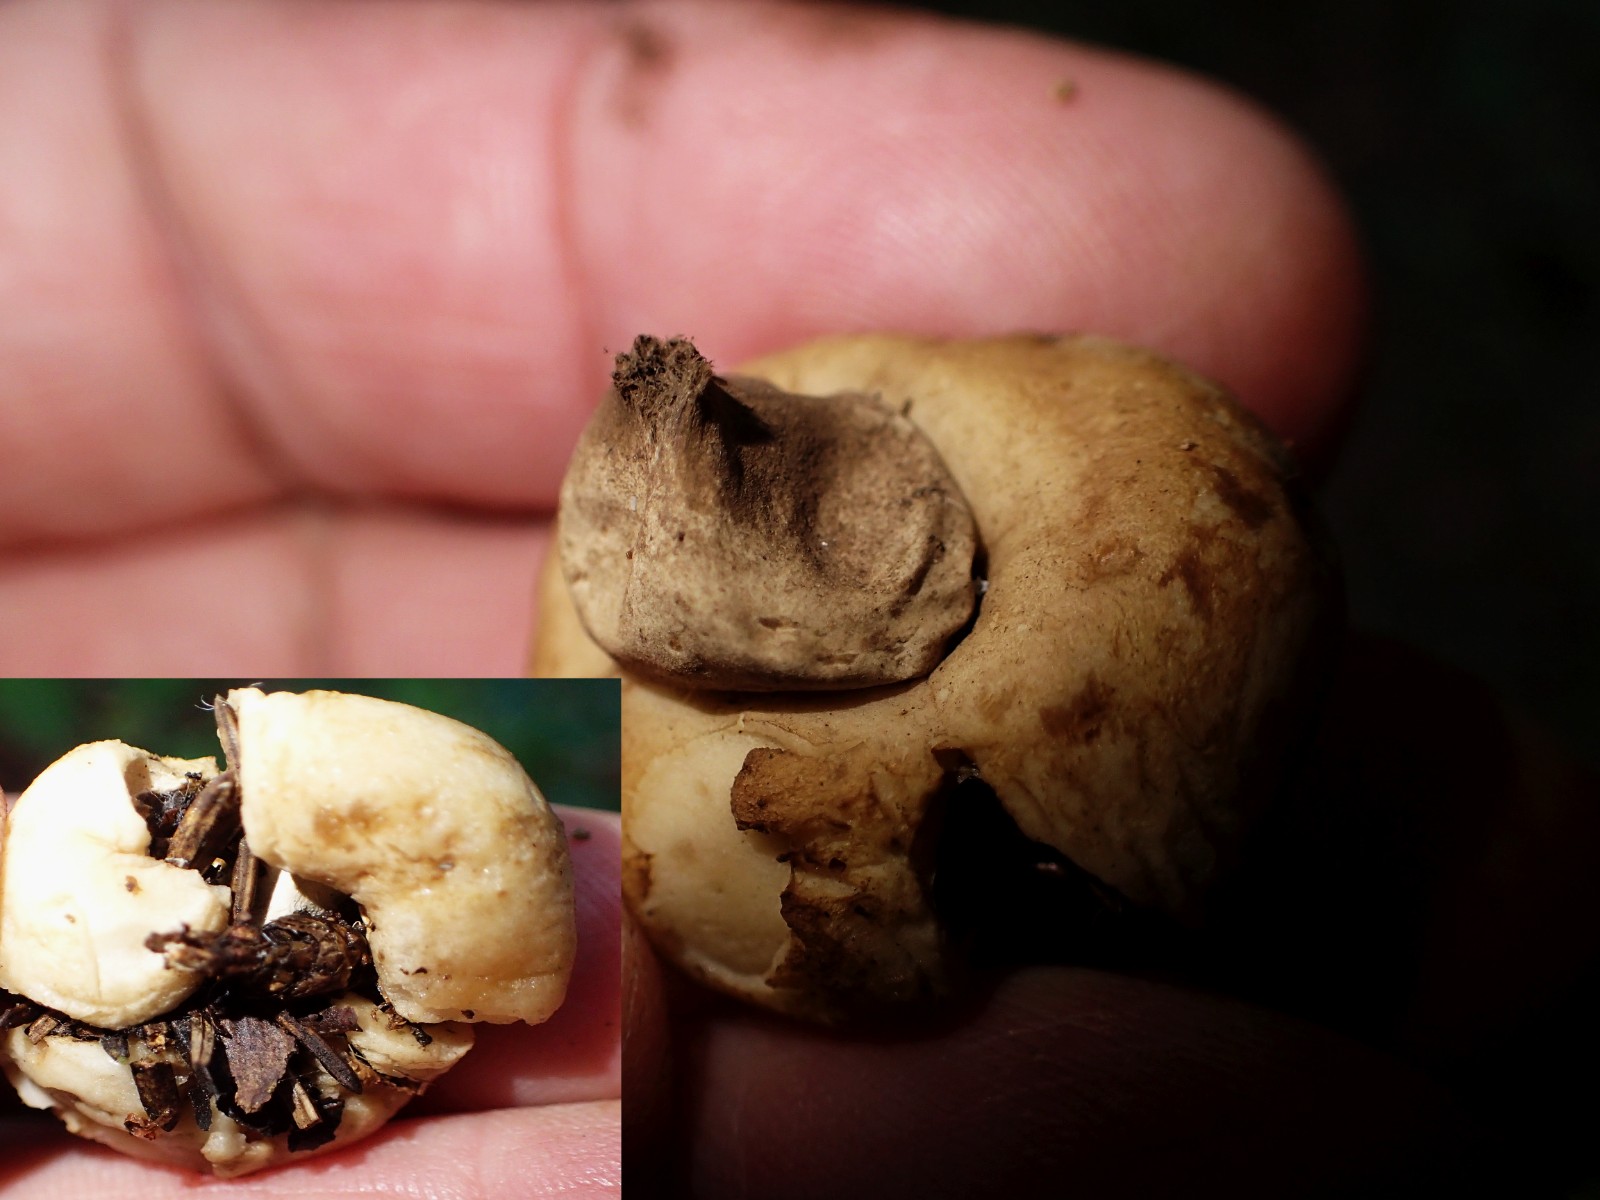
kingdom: Fungi
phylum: Basidiomycota
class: Agaricomycetes
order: Geastrales
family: Geastraceae
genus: Geastrum
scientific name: Geastrum
